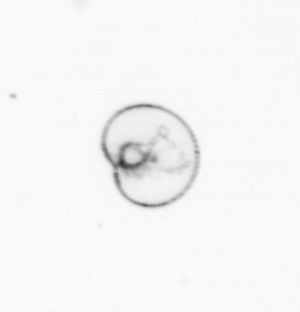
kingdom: Chromista
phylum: Myzozoa
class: Dinophyceae
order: Noctilucales
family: Noctilucaceae
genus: Noctiluca
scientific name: Noctiluca scintillans
